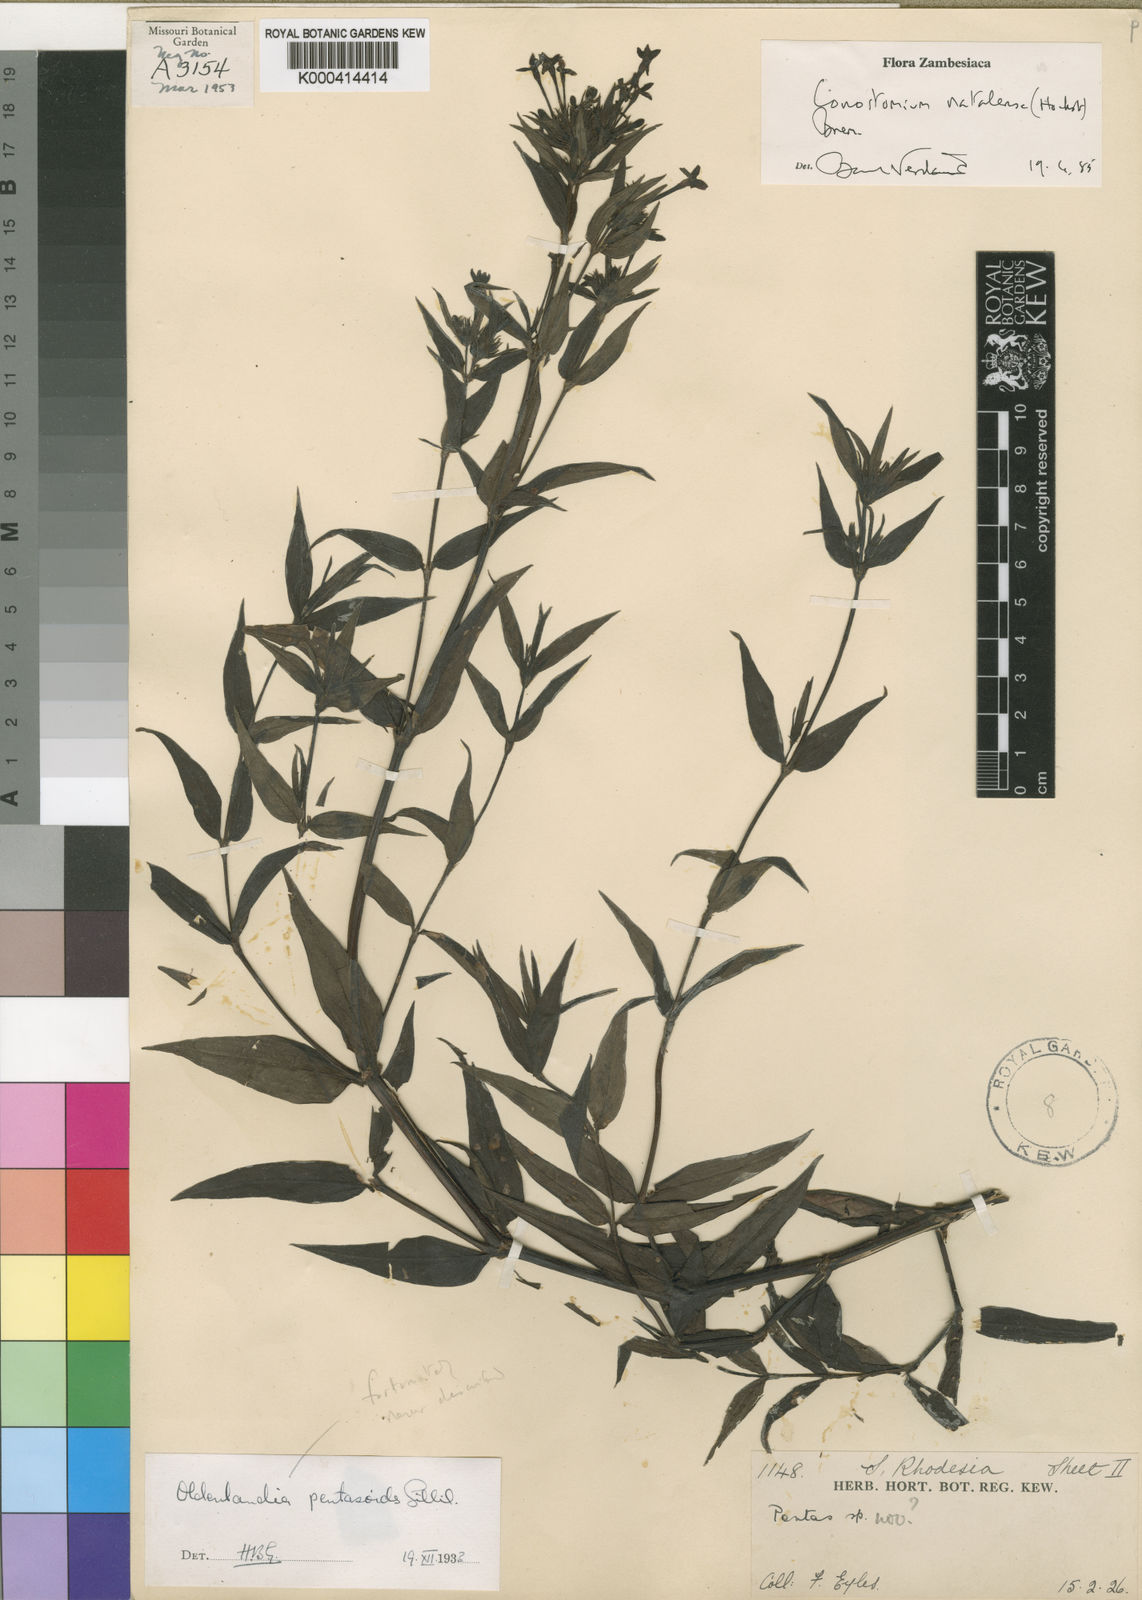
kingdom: Plantae
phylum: Tracheophyta
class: Magnoliopsida
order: Gentianales
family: Rubiaceae
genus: Conostomium
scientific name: Conostomium natalense
